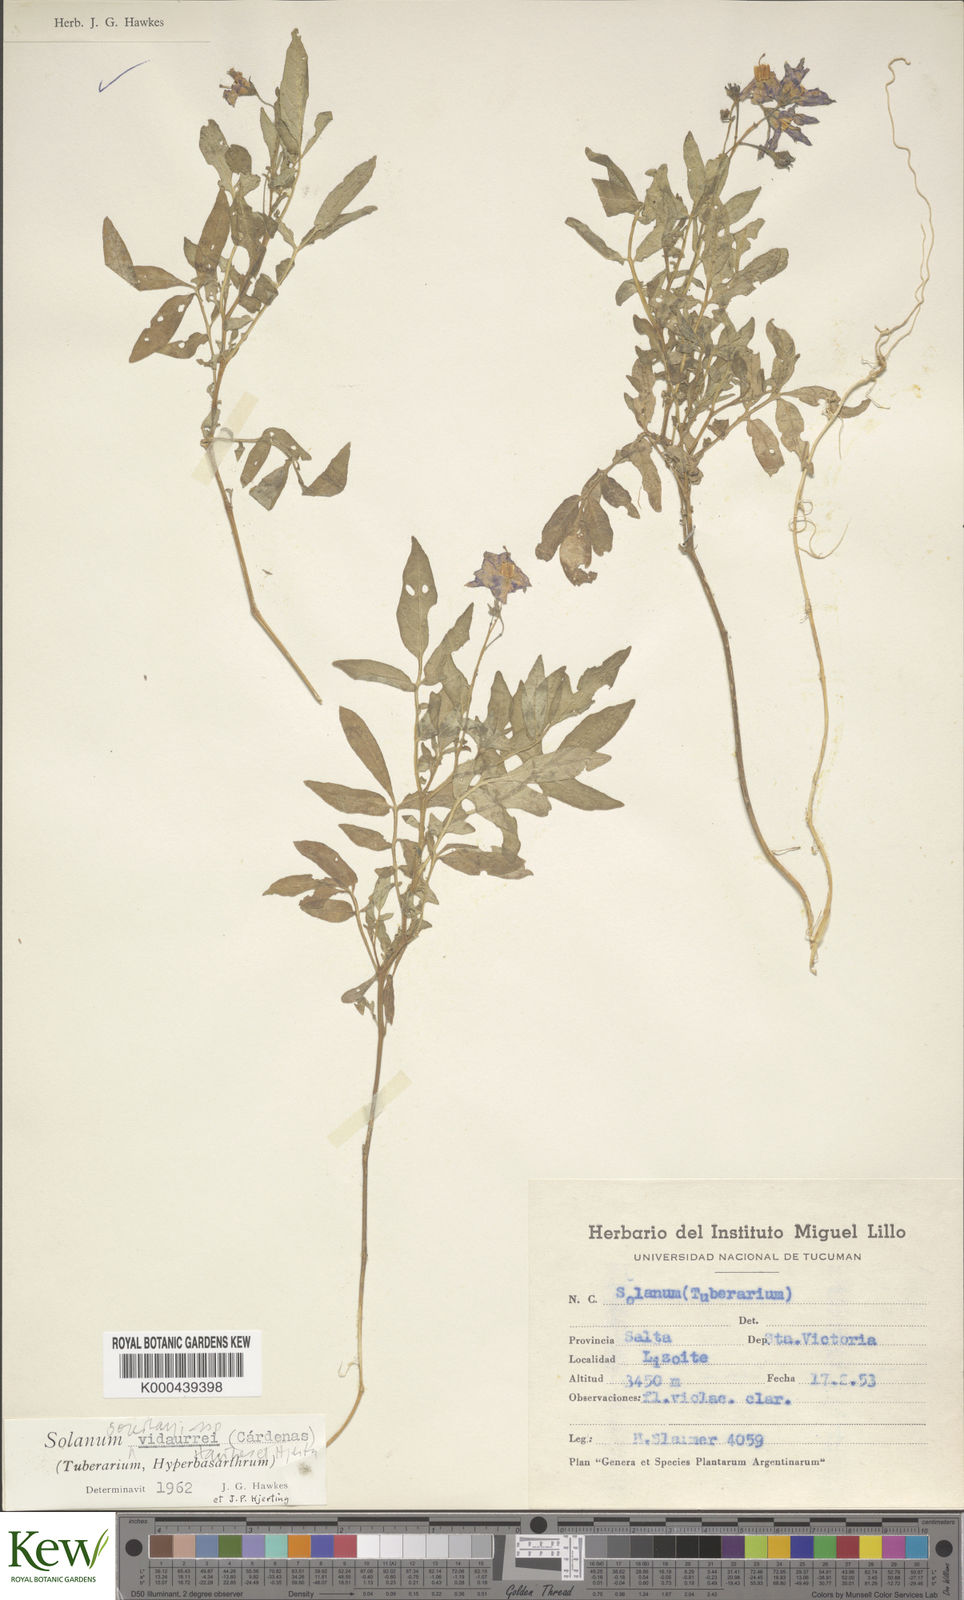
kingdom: Plantae
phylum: Tracheophyta
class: Magnoliopsida
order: Solanales
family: Solanaceae
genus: Solanum
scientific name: Solanum brevicaule
